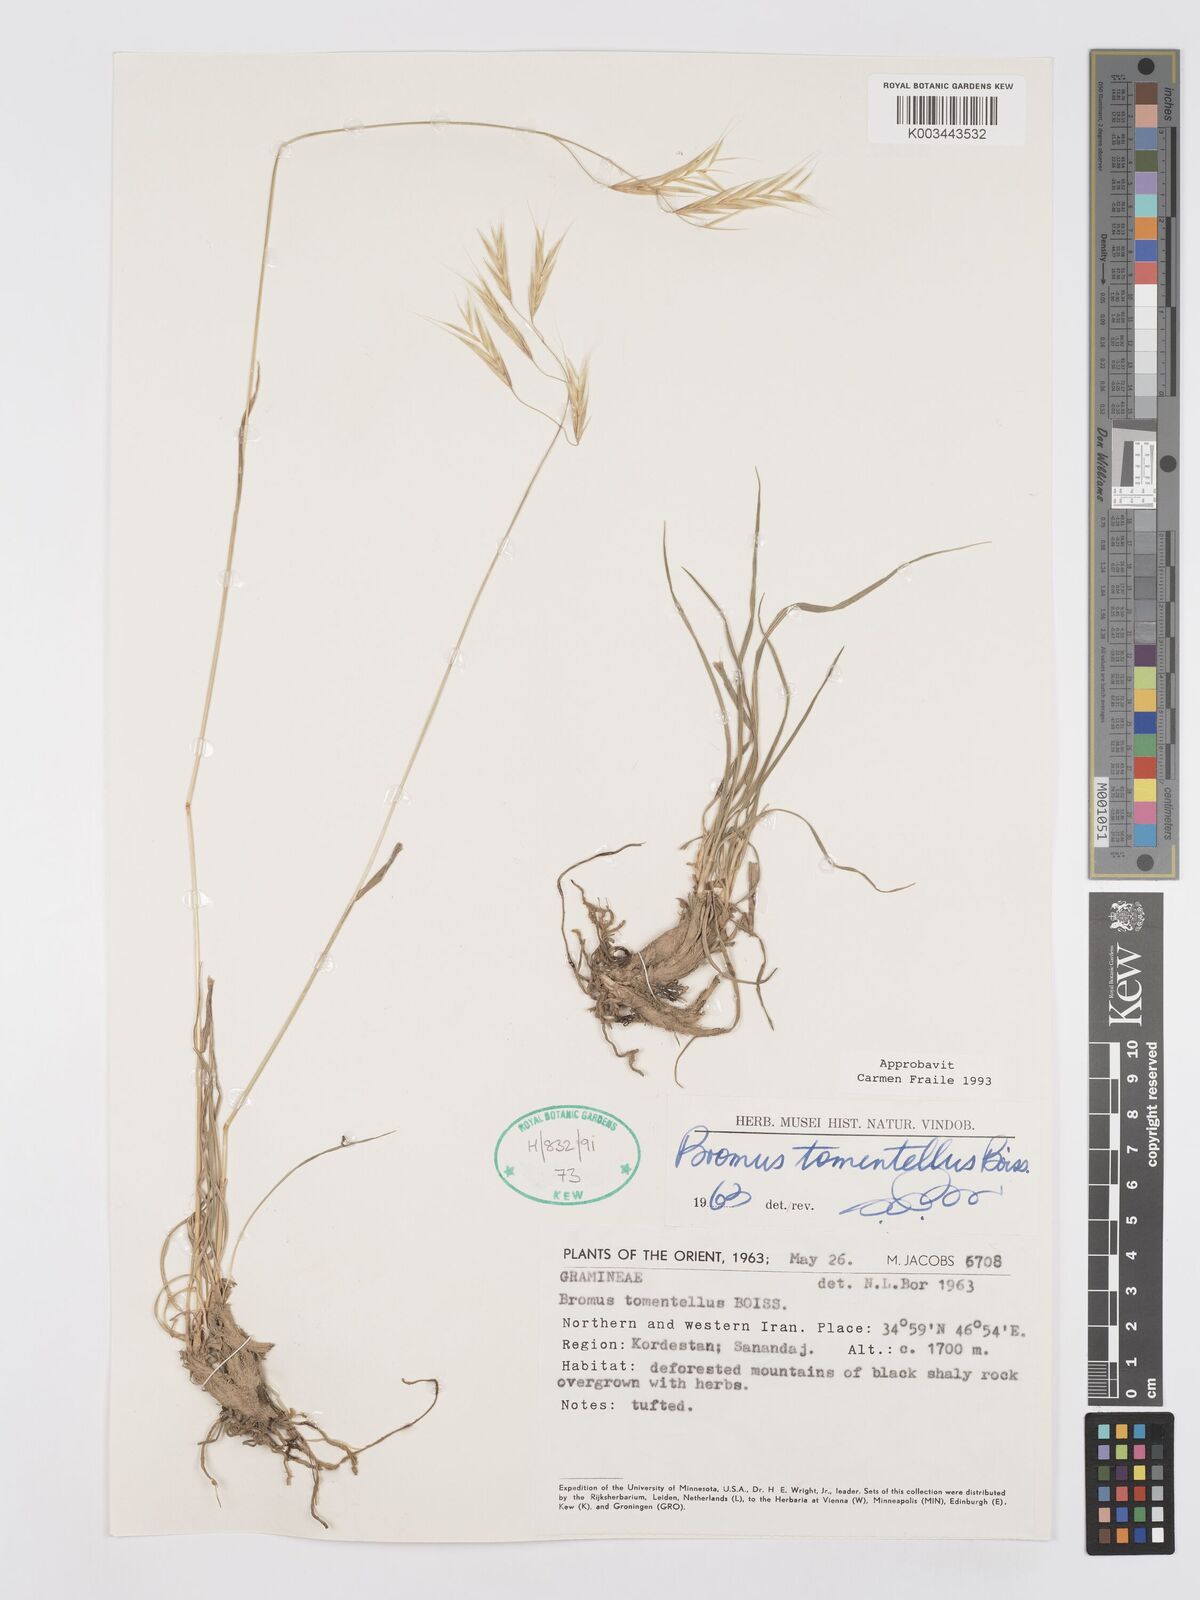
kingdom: Plantae
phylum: Tracheophyta
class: Liliopsida
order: Poales
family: Poaceae
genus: Bromus
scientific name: Bromus tomentellus
